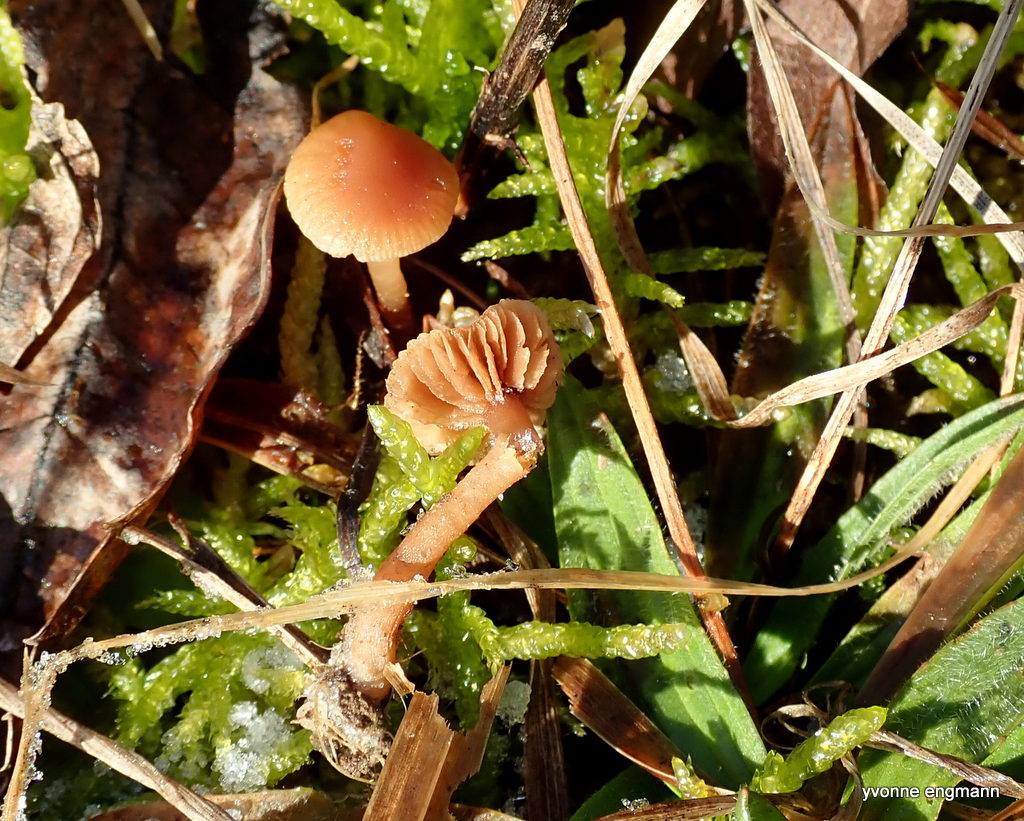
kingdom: Fungi
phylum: Basidiomycota
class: Agaricomycetes
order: Agaricales
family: Tubariaceae
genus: Tubaria
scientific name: Tubaria furfuracea
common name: kliddet fnughat
